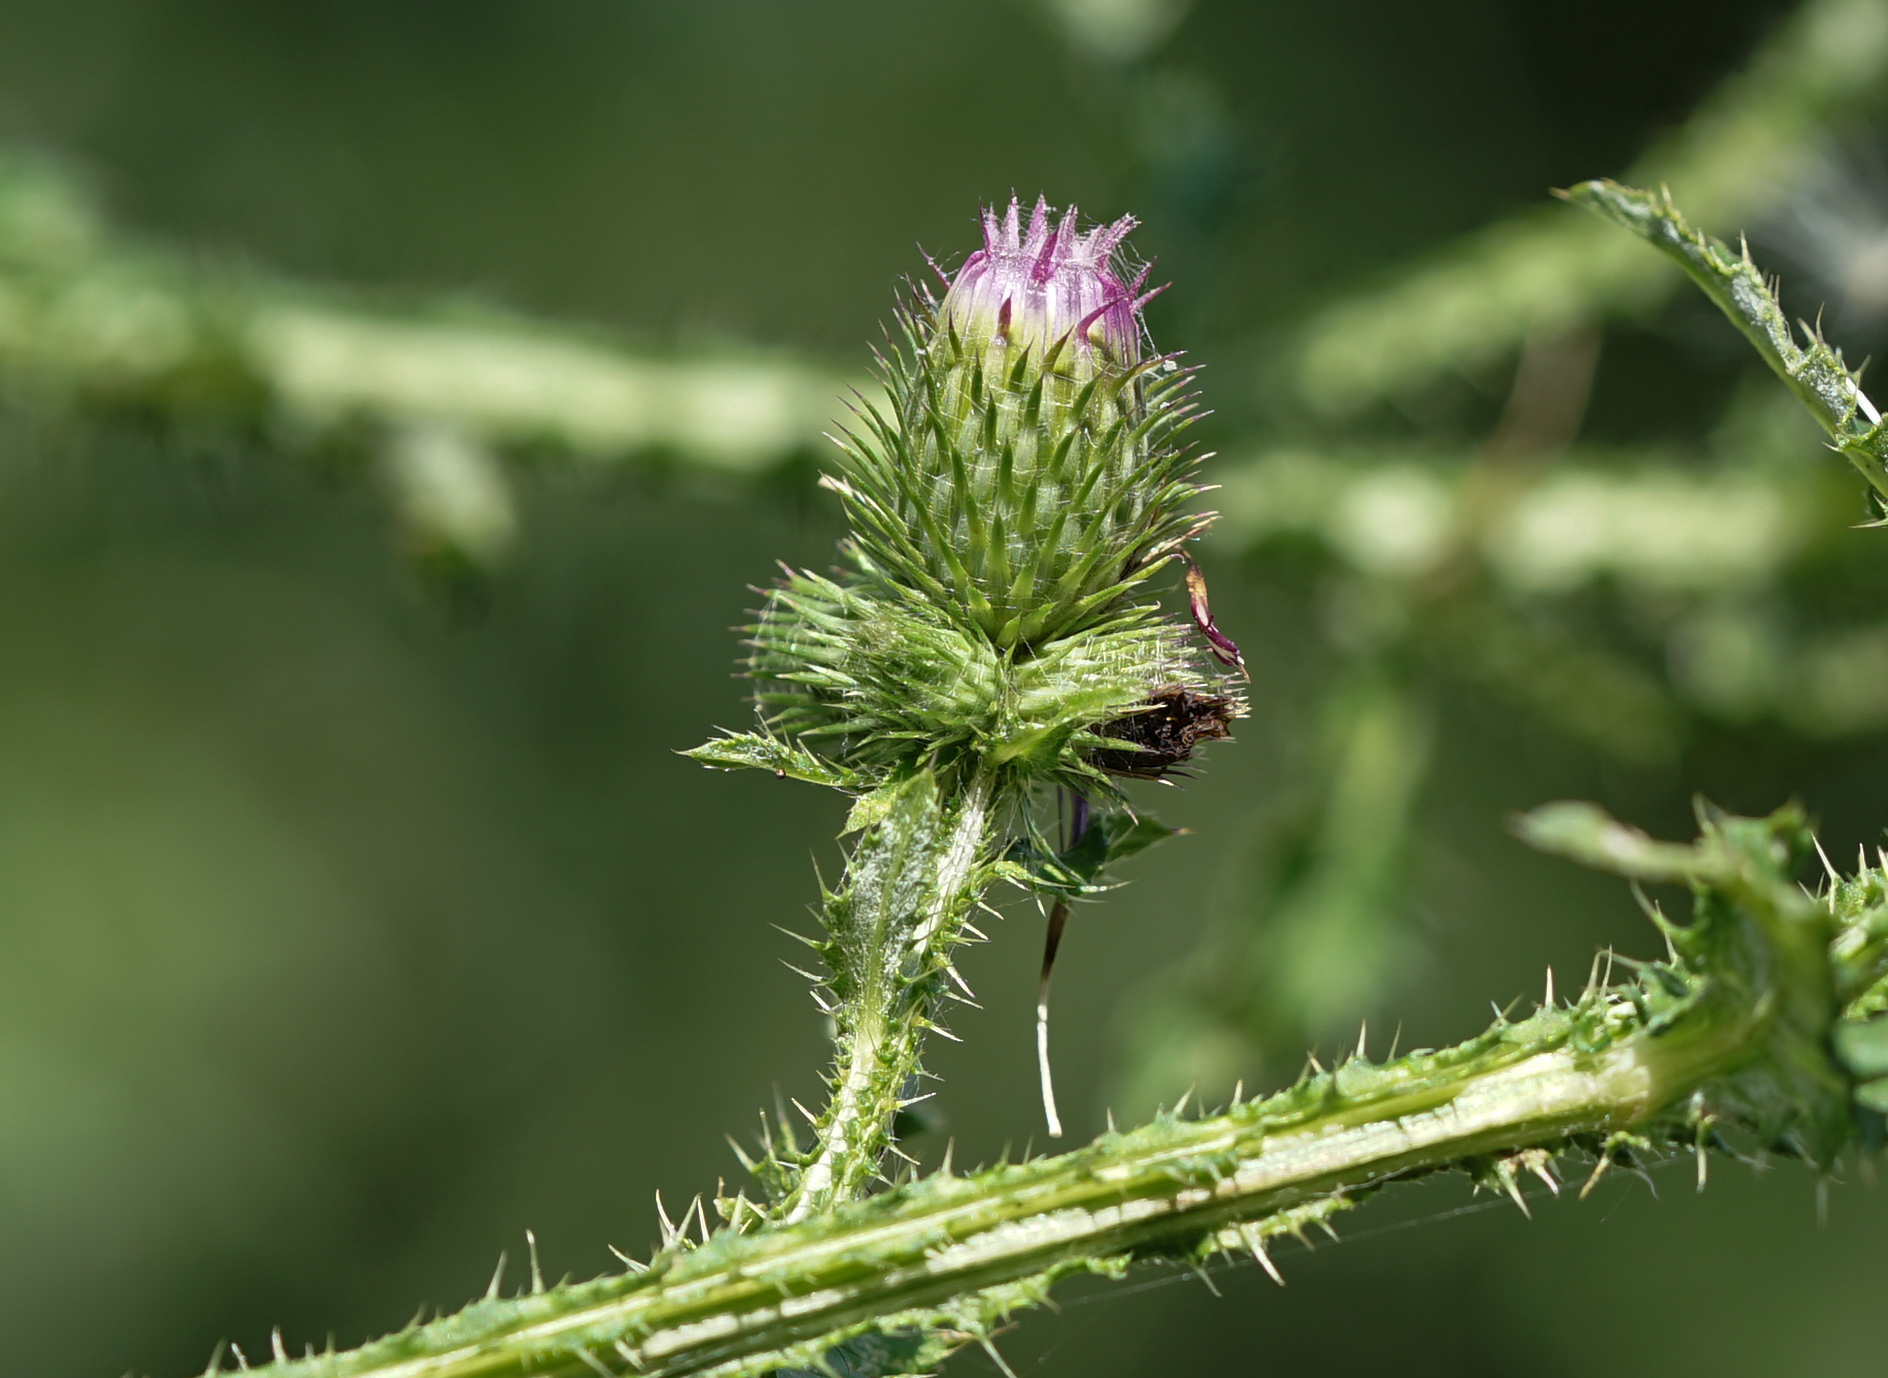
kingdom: Plantae
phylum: Tracheophyta
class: Magnoliopsida
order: Asterales
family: Asteraceae
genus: Carduus
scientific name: Carduus acanthoides
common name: Plumeless thistle
